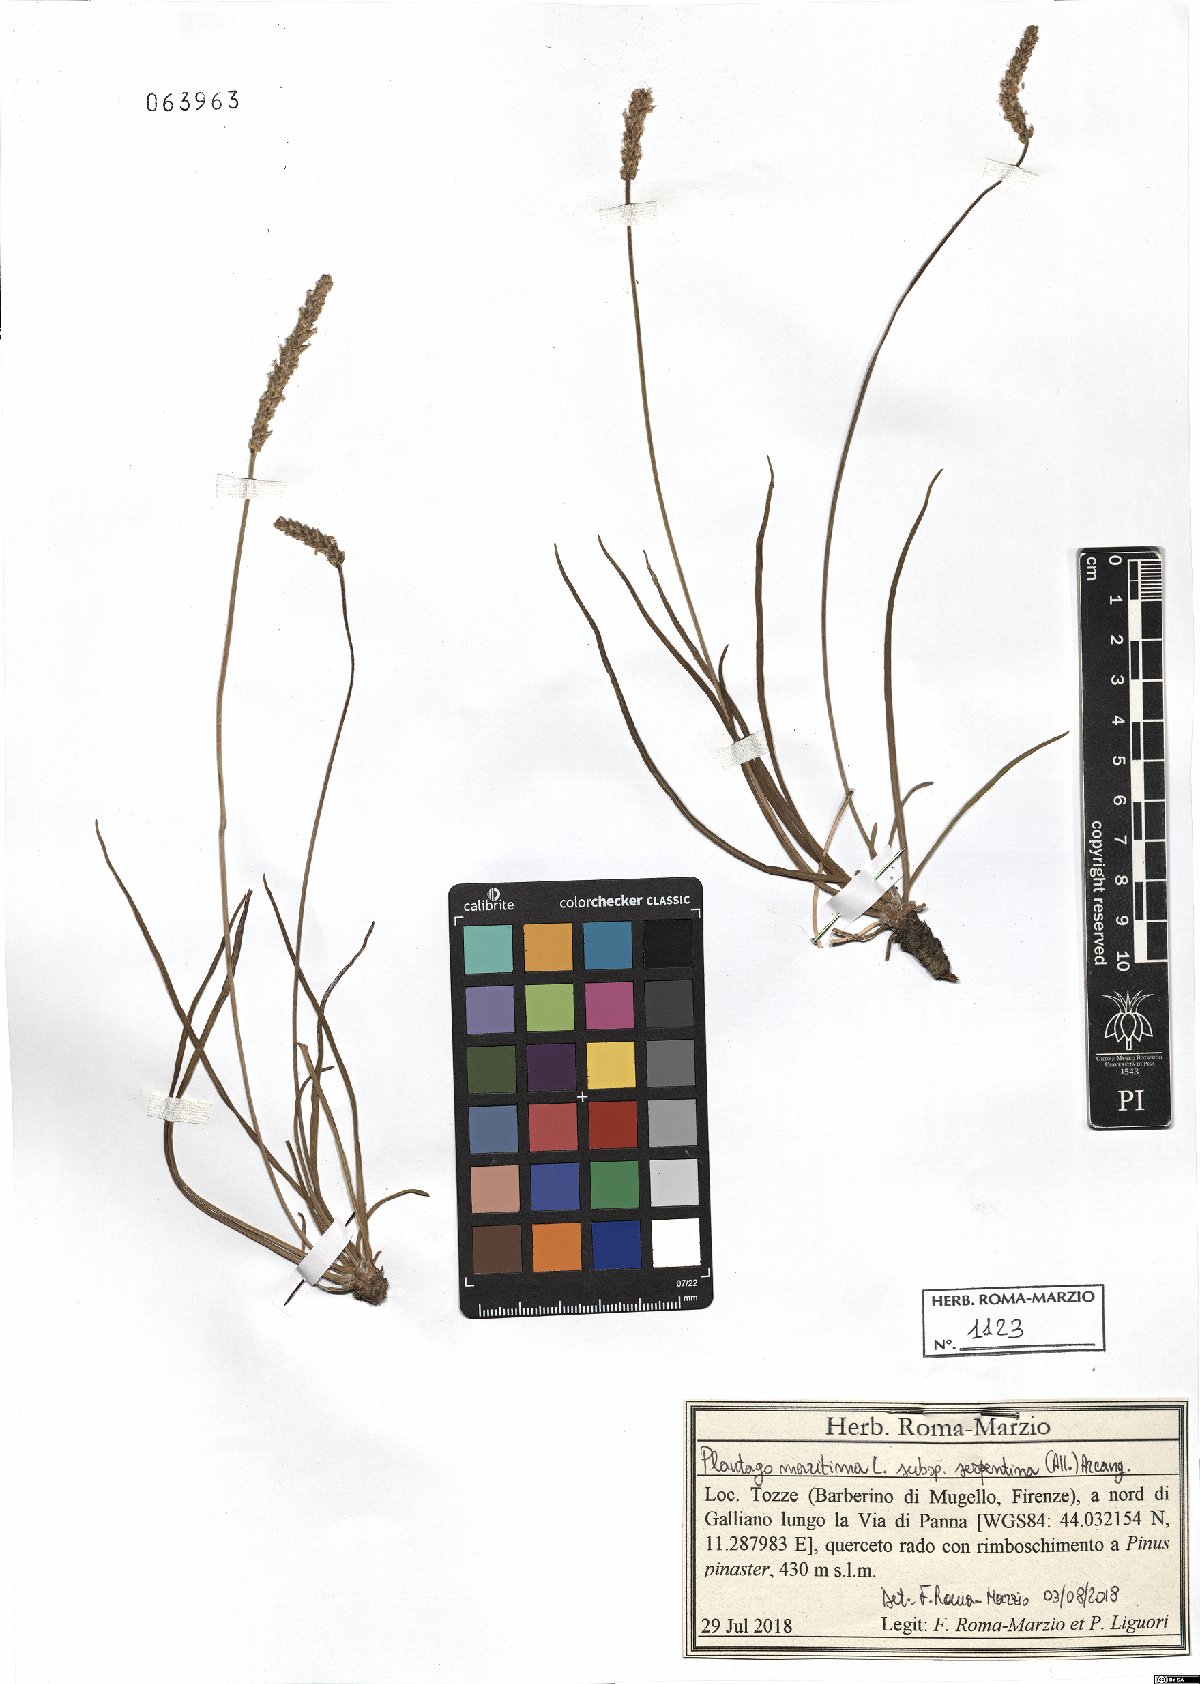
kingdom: Plantae
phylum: Tracheophyta
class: Magnoliopsida
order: Lamiales
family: Plantaginaceae
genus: Plantago
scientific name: Plantago strictissima
